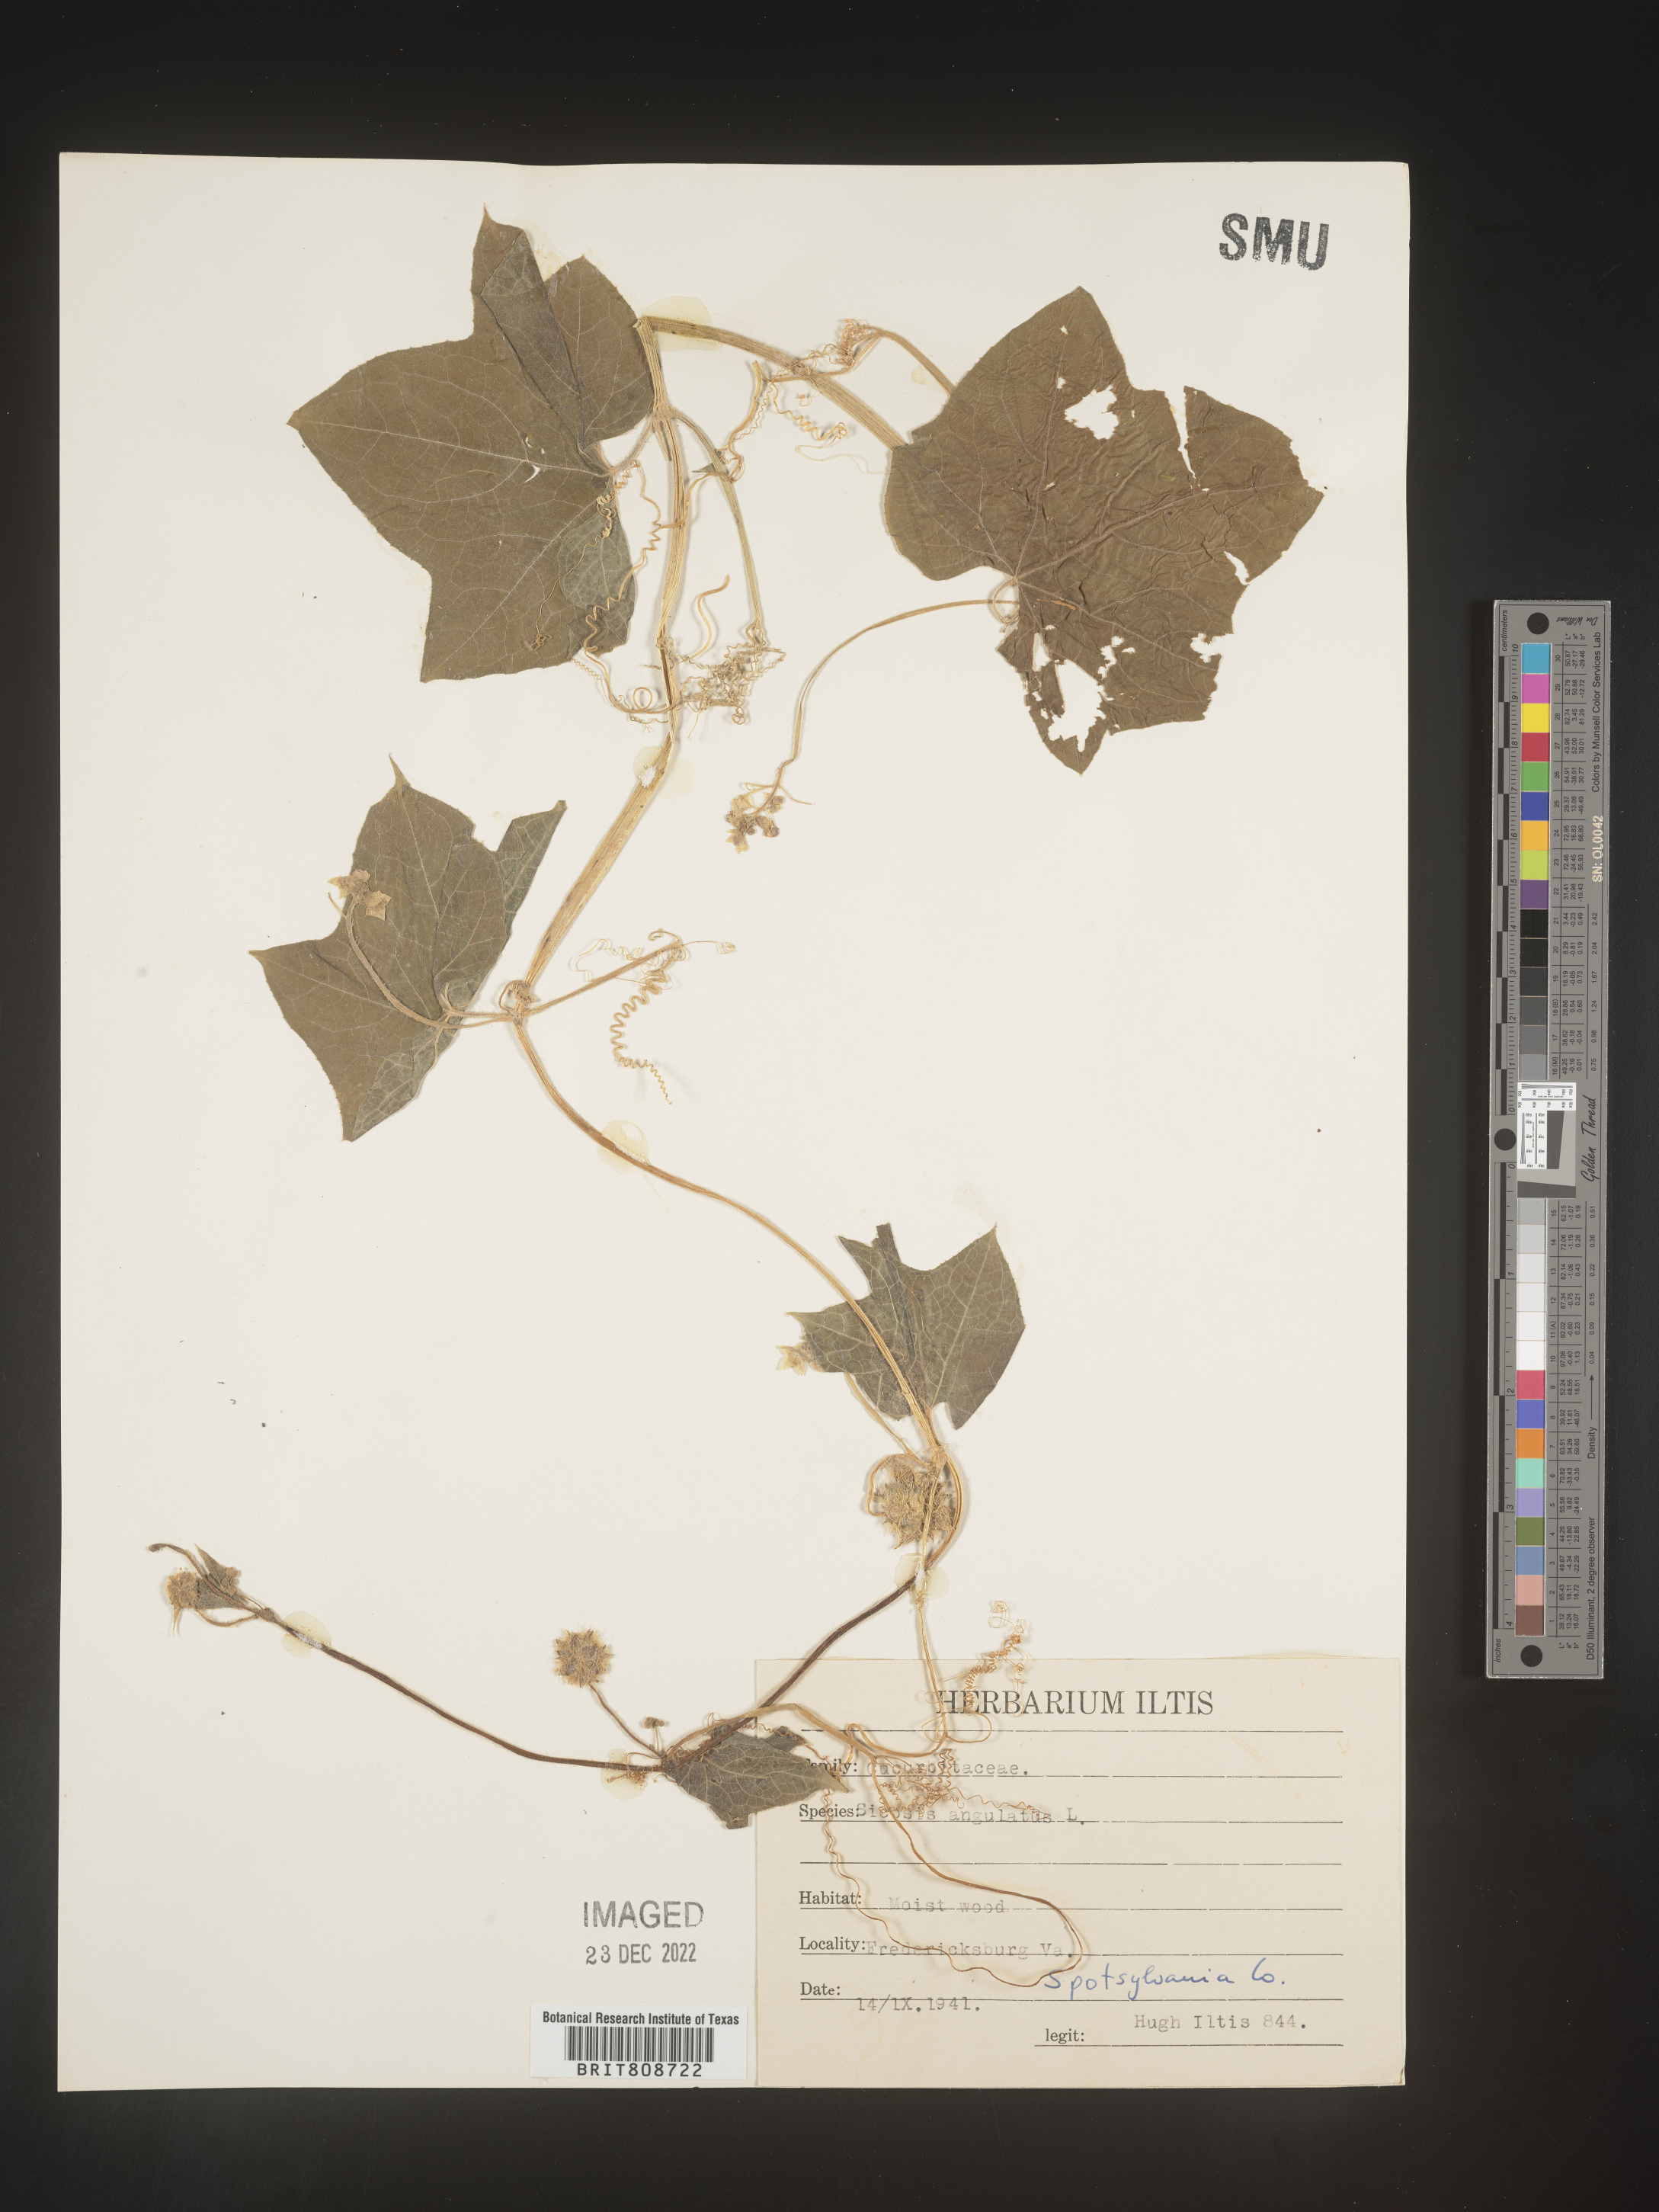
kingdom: Plantae
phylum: Tracheophyta
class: Magnoliopsida
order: Cucurbitales
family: Cucurbitaceae
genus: Sicyos
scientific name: Sicyos angulatus
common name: Angled burr cucumber
